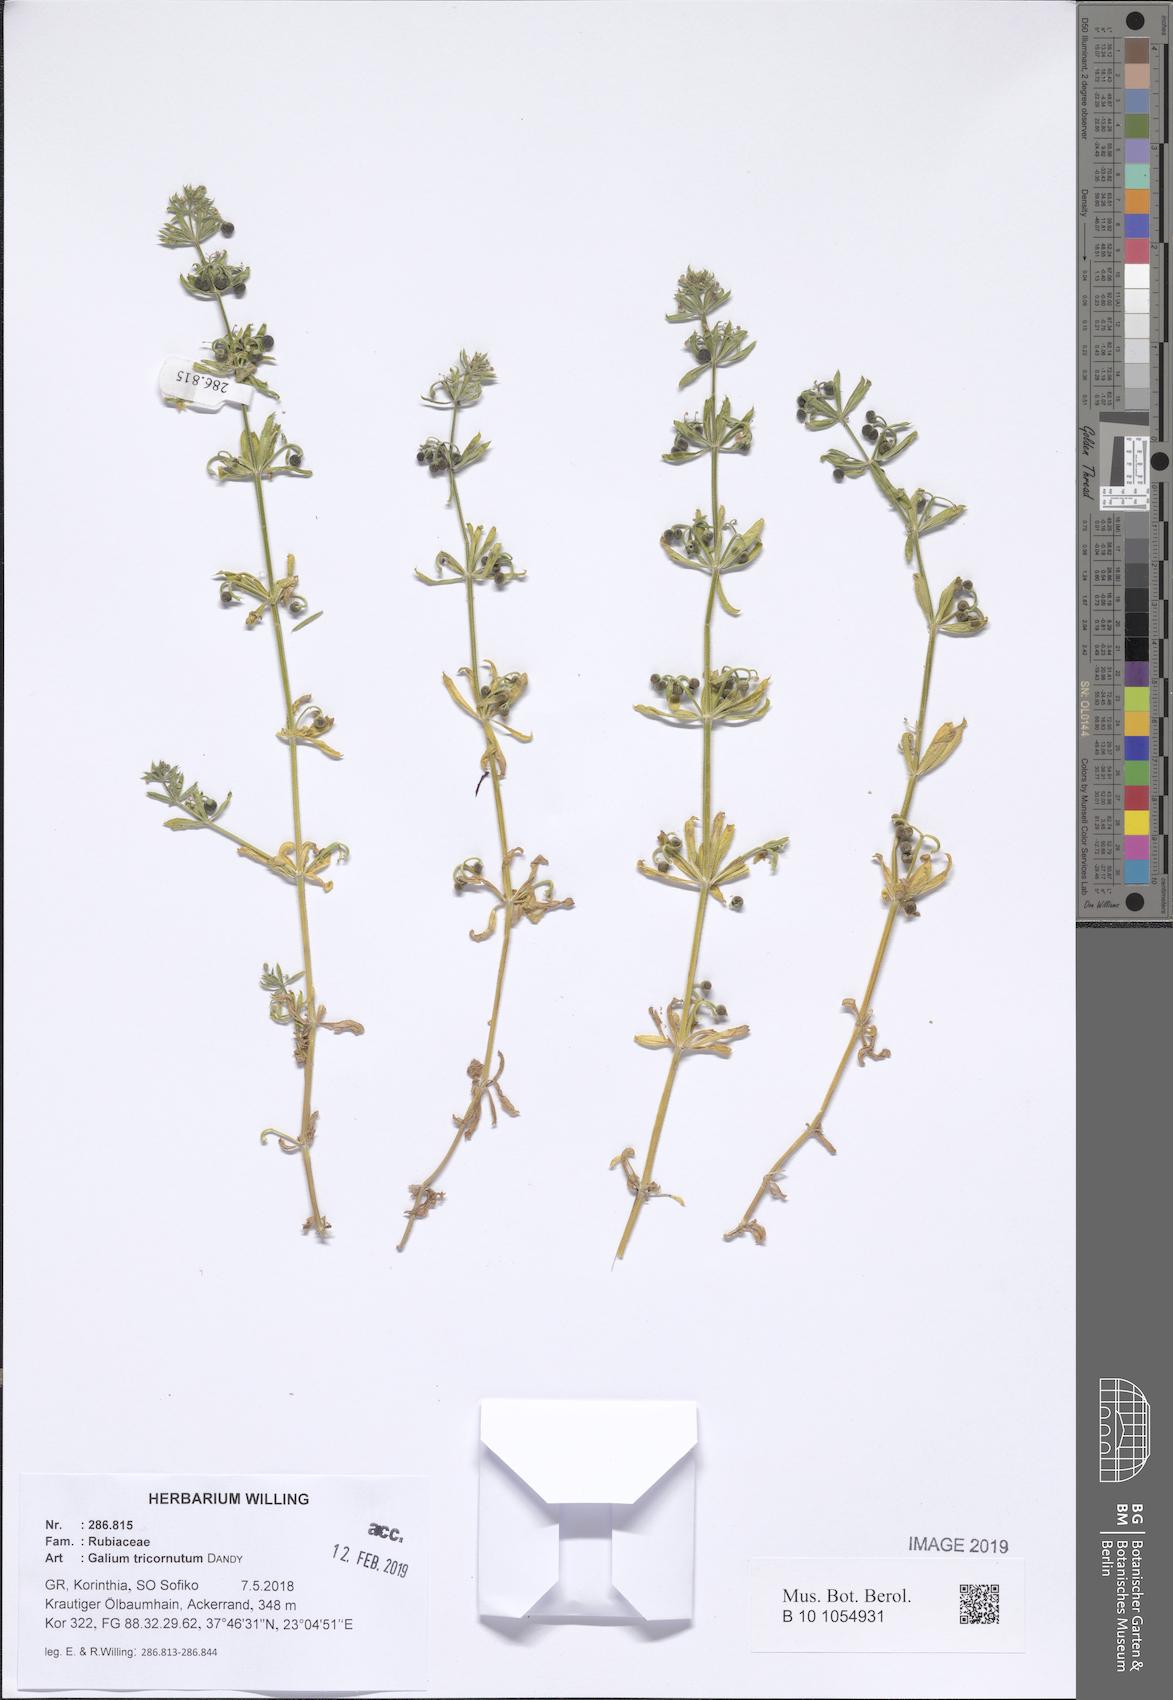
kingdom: Plantae
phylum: Tracheophyta
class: Magnoliopsida
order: Gentianales
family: Rubiaceae
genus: Galium
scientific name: Galium tricornutum
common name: Corn cleavers
